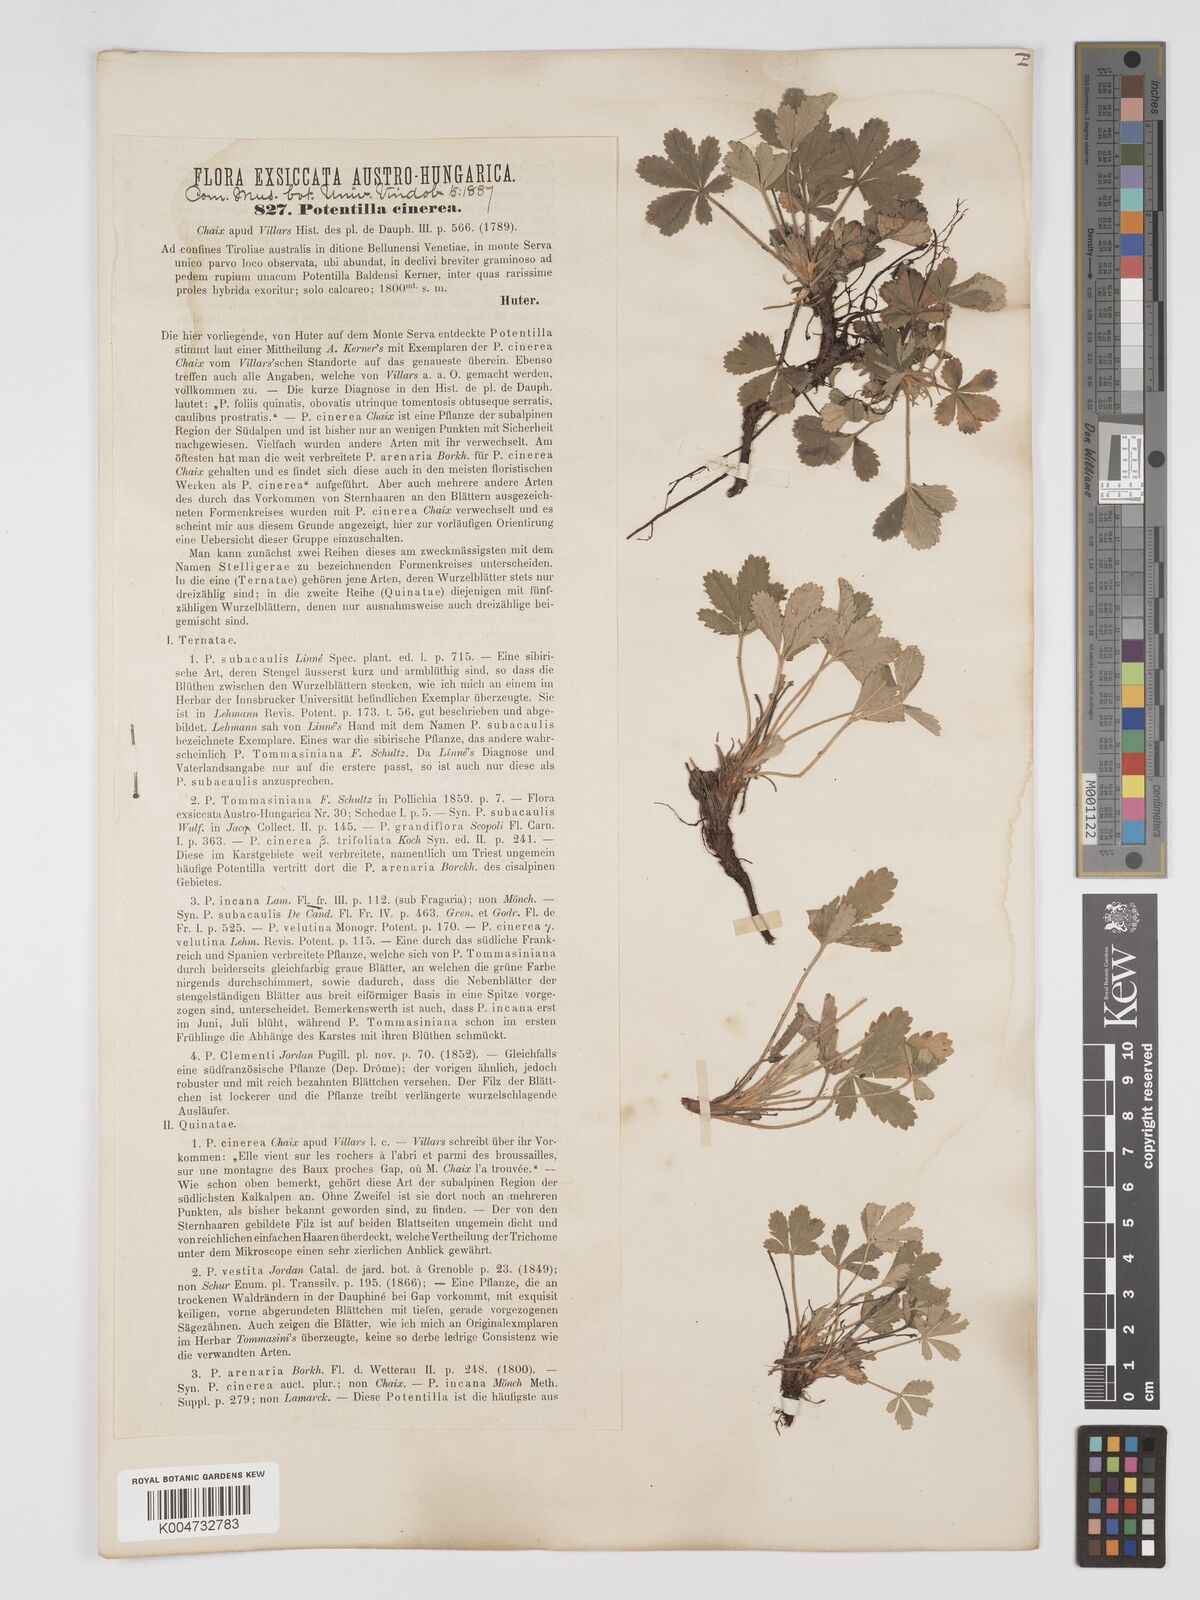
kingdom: Plantae
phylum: Tracheophyta
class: Magnoliopsida
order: Rosales
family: Rosaceae
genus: Potentilla
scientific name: Potentilla
